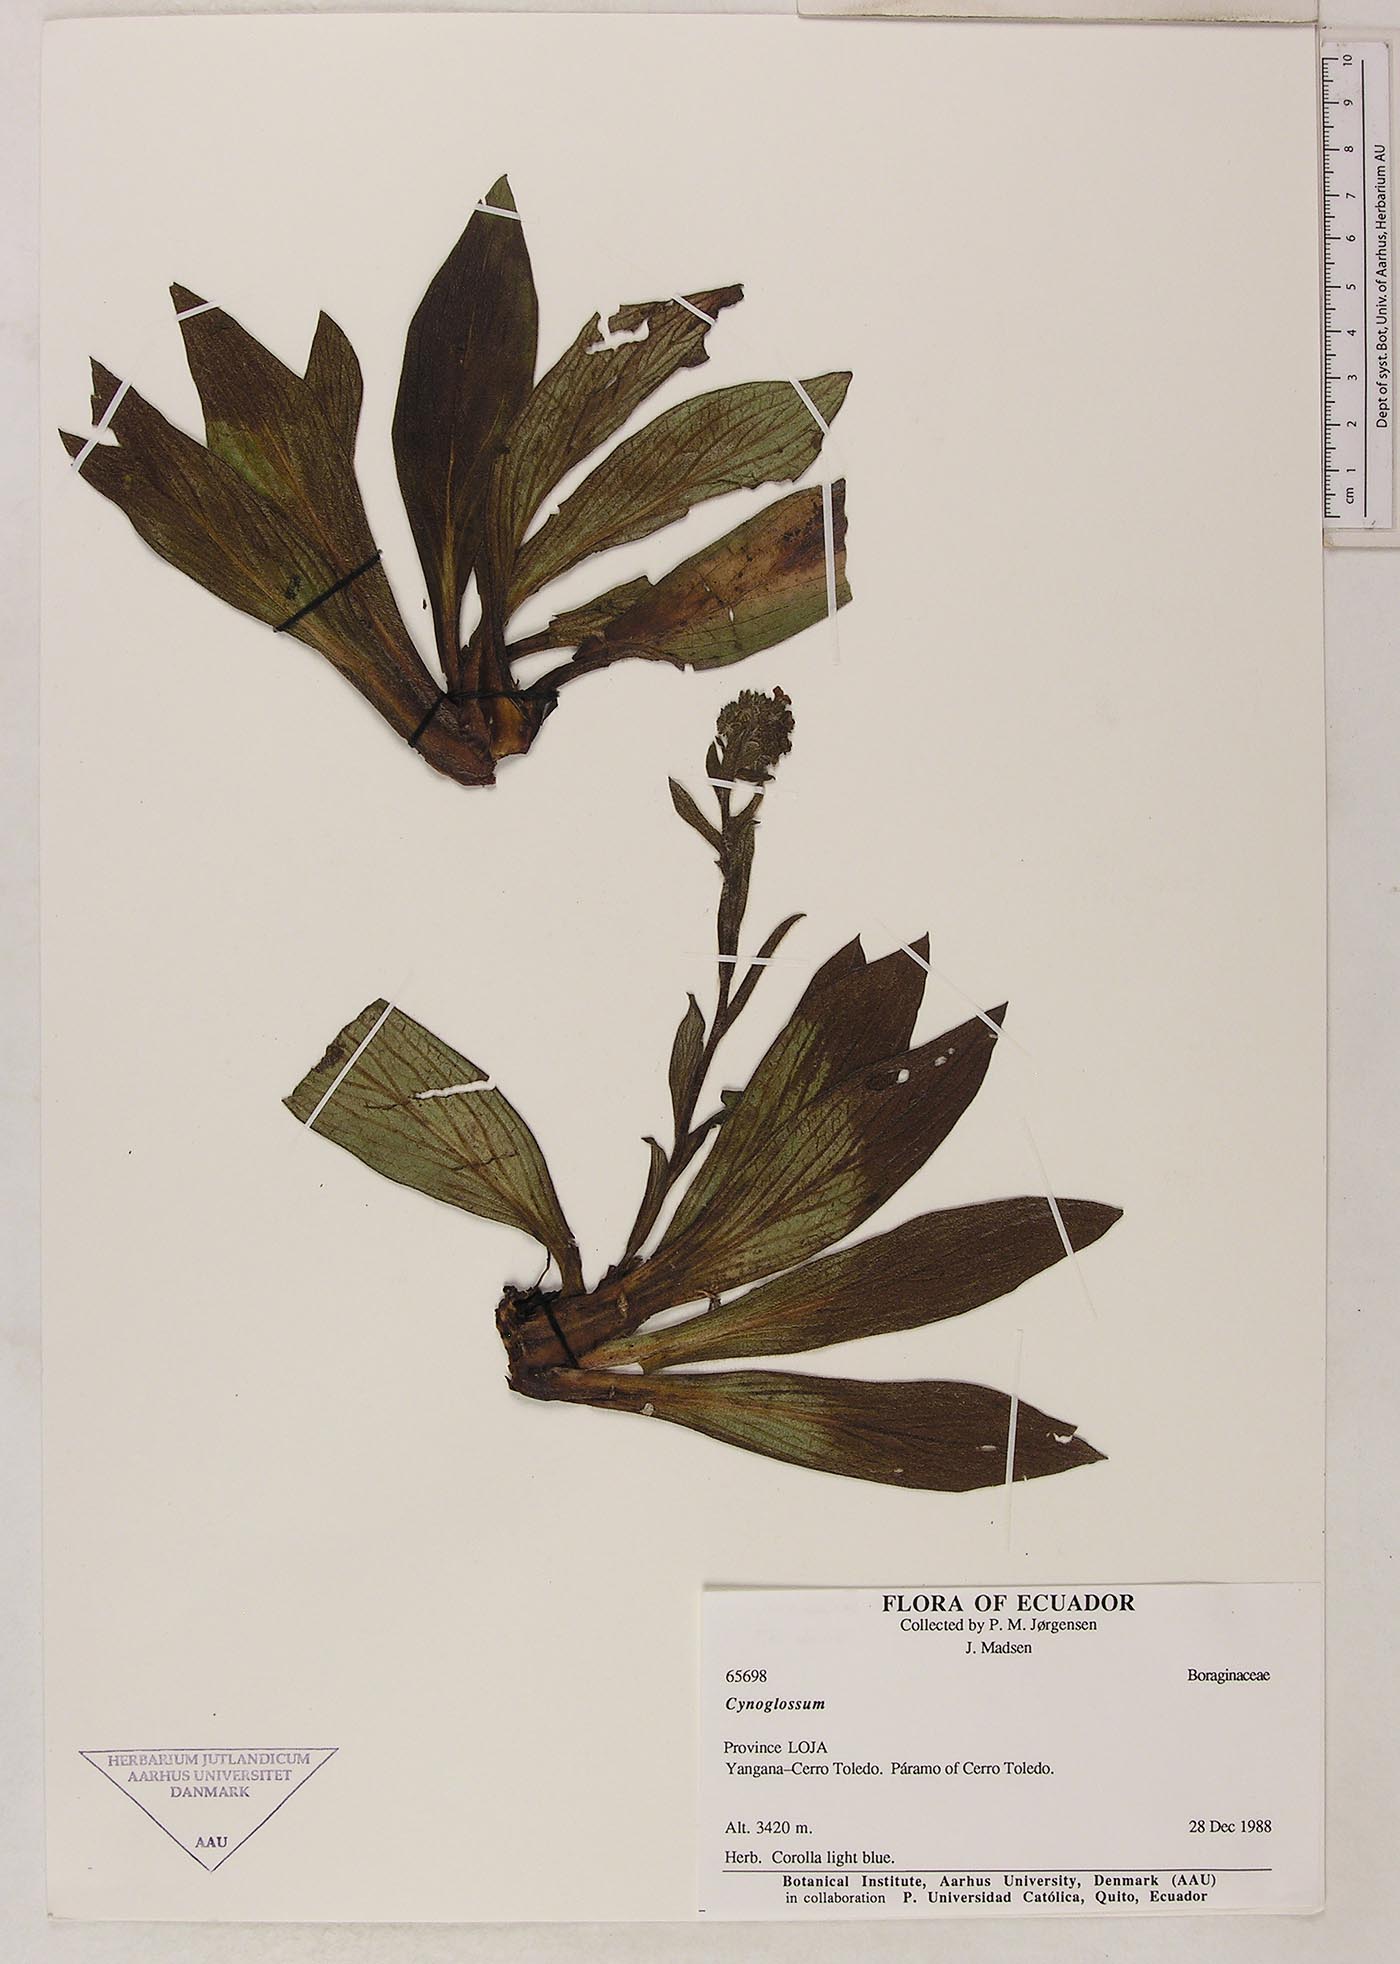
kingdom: Plantae
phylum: Tracheophyta
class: Magnoliopsida
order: Boraginales
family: Boraginaceae
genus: Moritzia
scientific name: Moritzia lindenii
